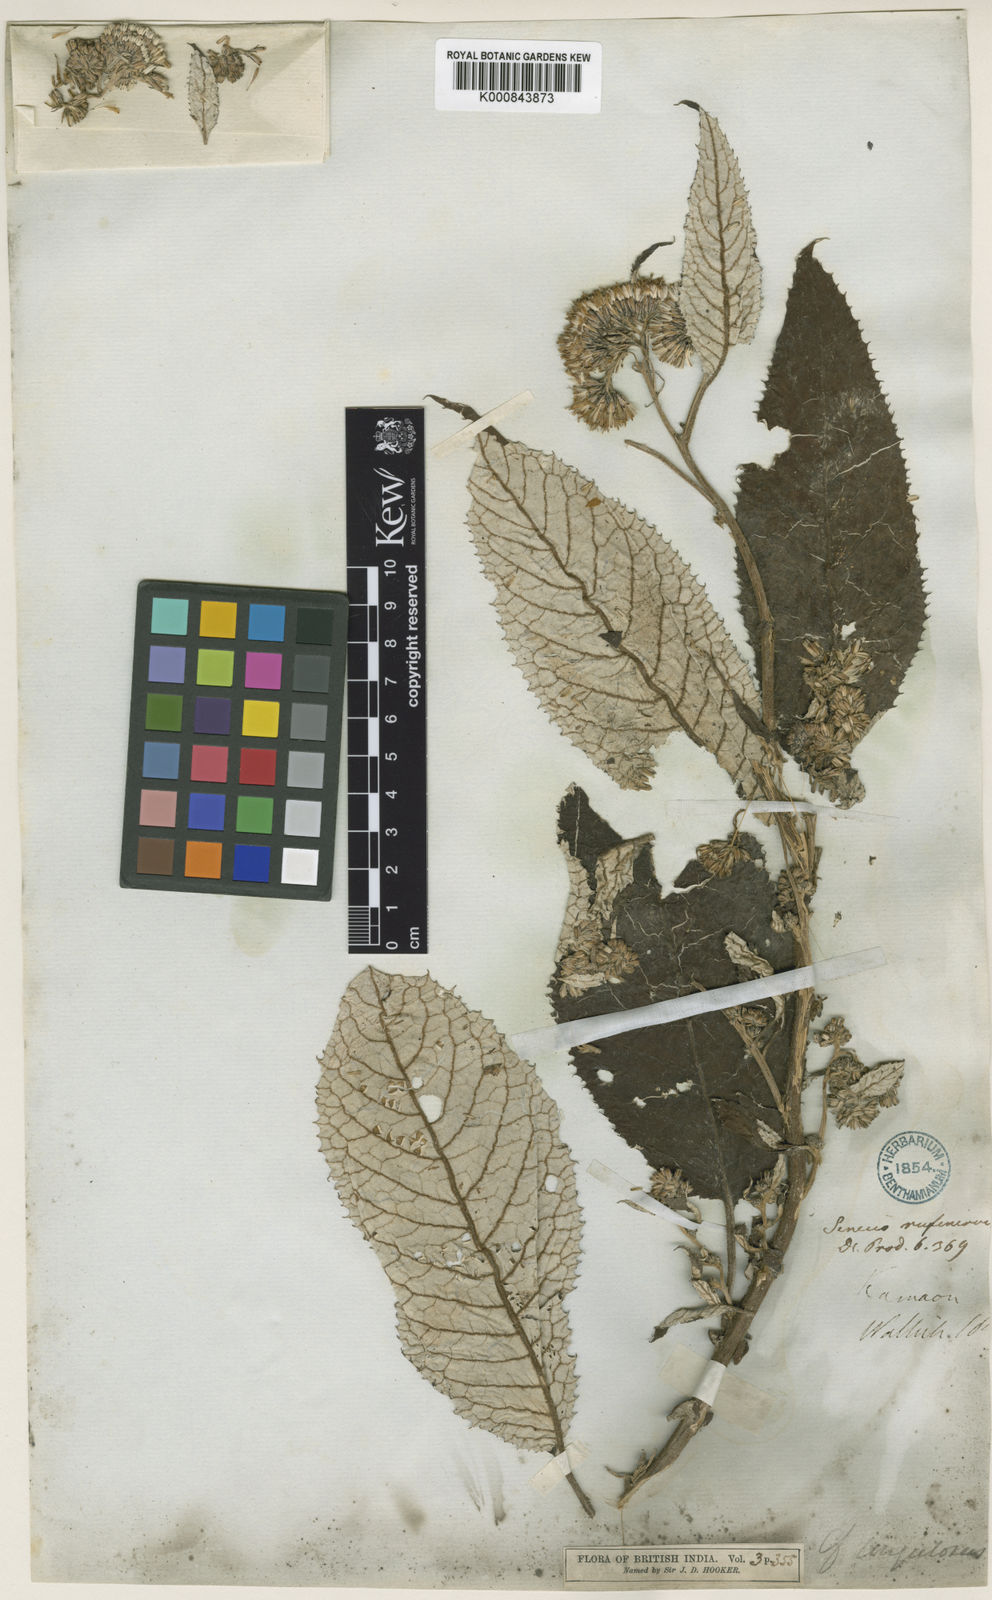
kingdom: Plantae
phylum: Tracheophyta
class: Magnoliopsida
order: Asterales
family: Asteraceae
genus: Synotis
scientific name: Synotis rufinervis
